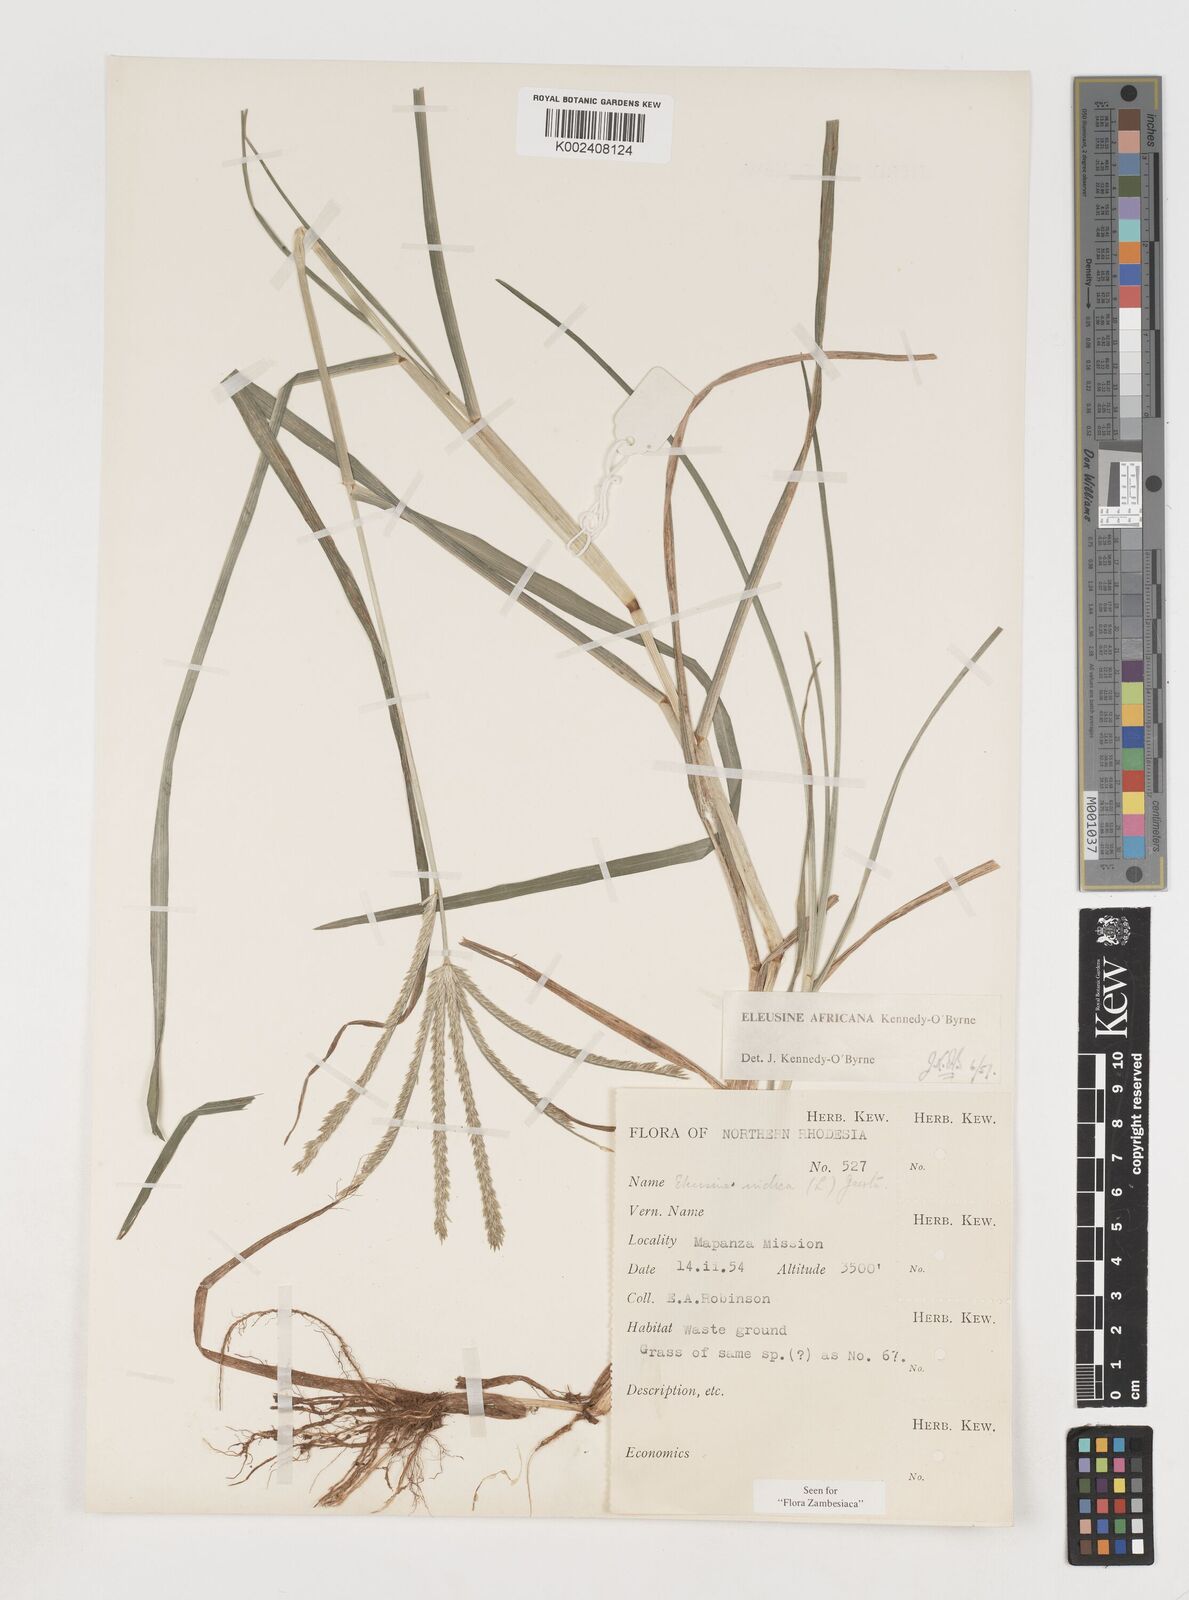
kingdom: Plantae
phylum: Tracheophyta
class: Liliopsida
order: Poales
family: Poaceae
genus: Eleusine
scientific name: Eleusine africana
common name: Wild african finger millet
